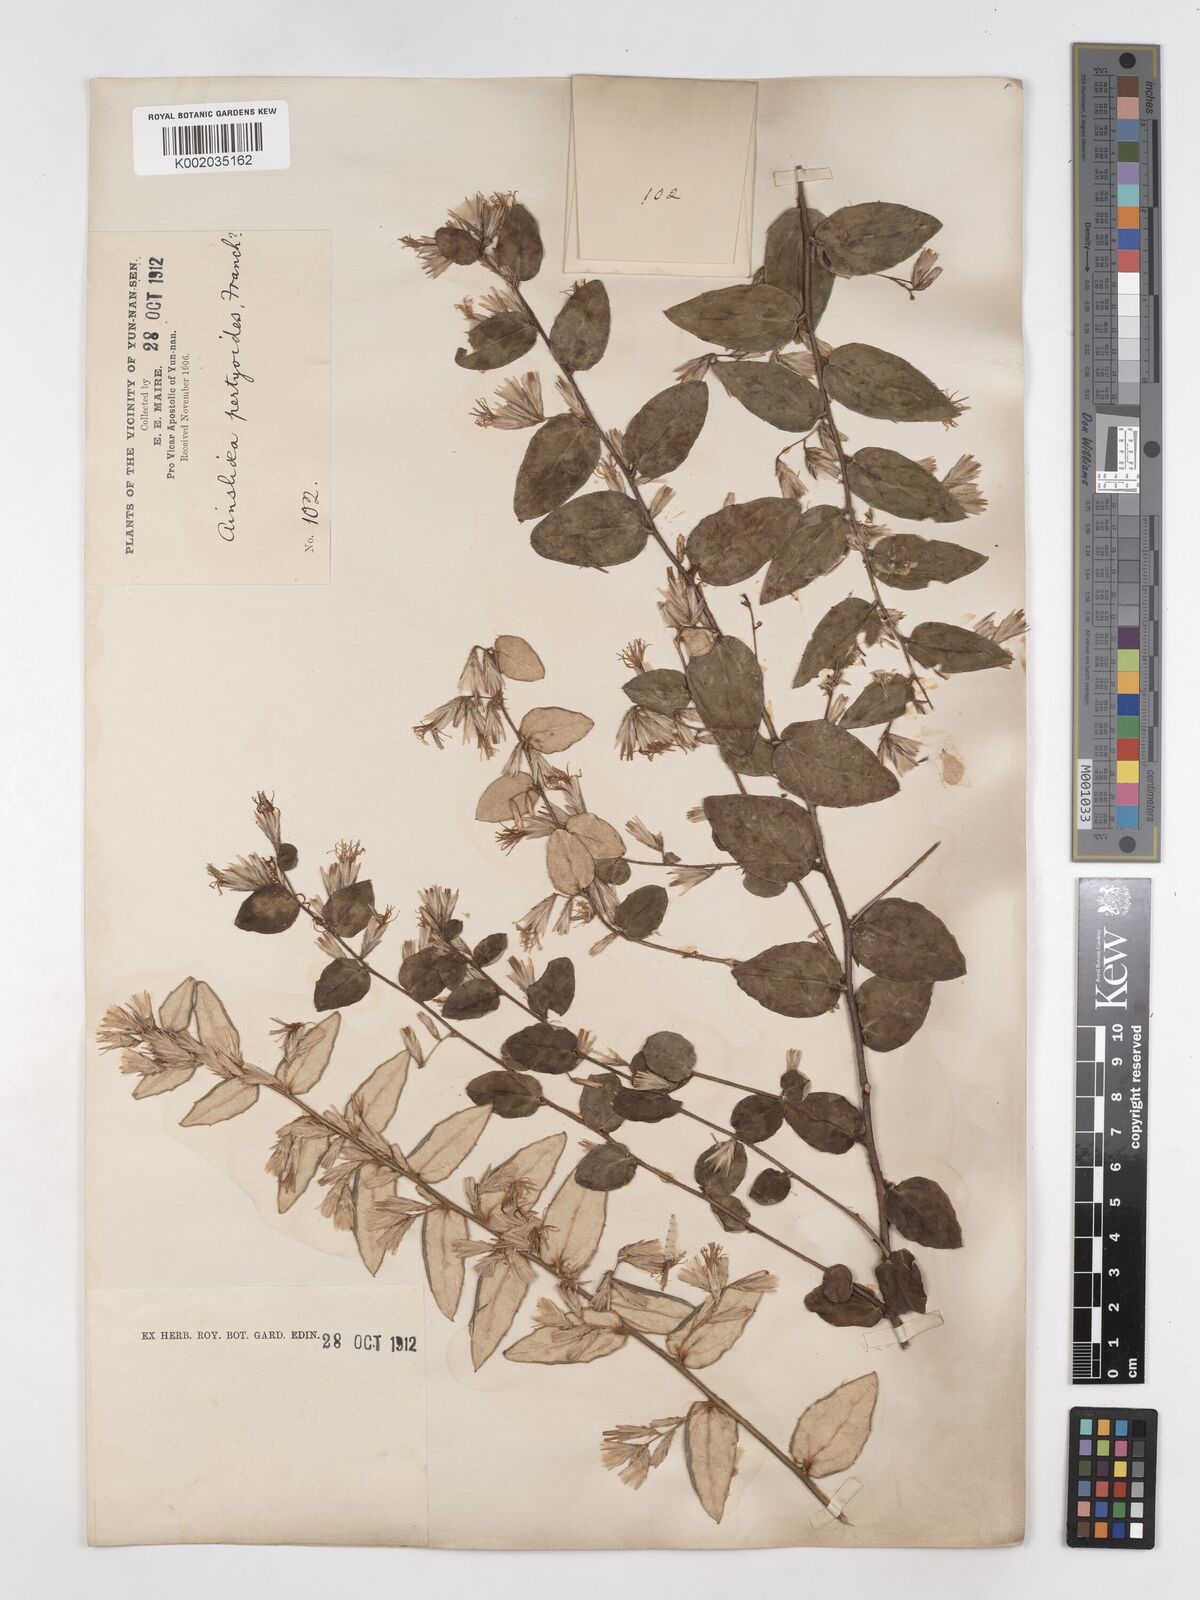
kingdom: Plantae
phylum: Tracheophyta
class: Magnoliopsida
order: Asterales
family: Asteraceae
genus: Ainsliaea
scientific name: Ainsliaea pertyoides
